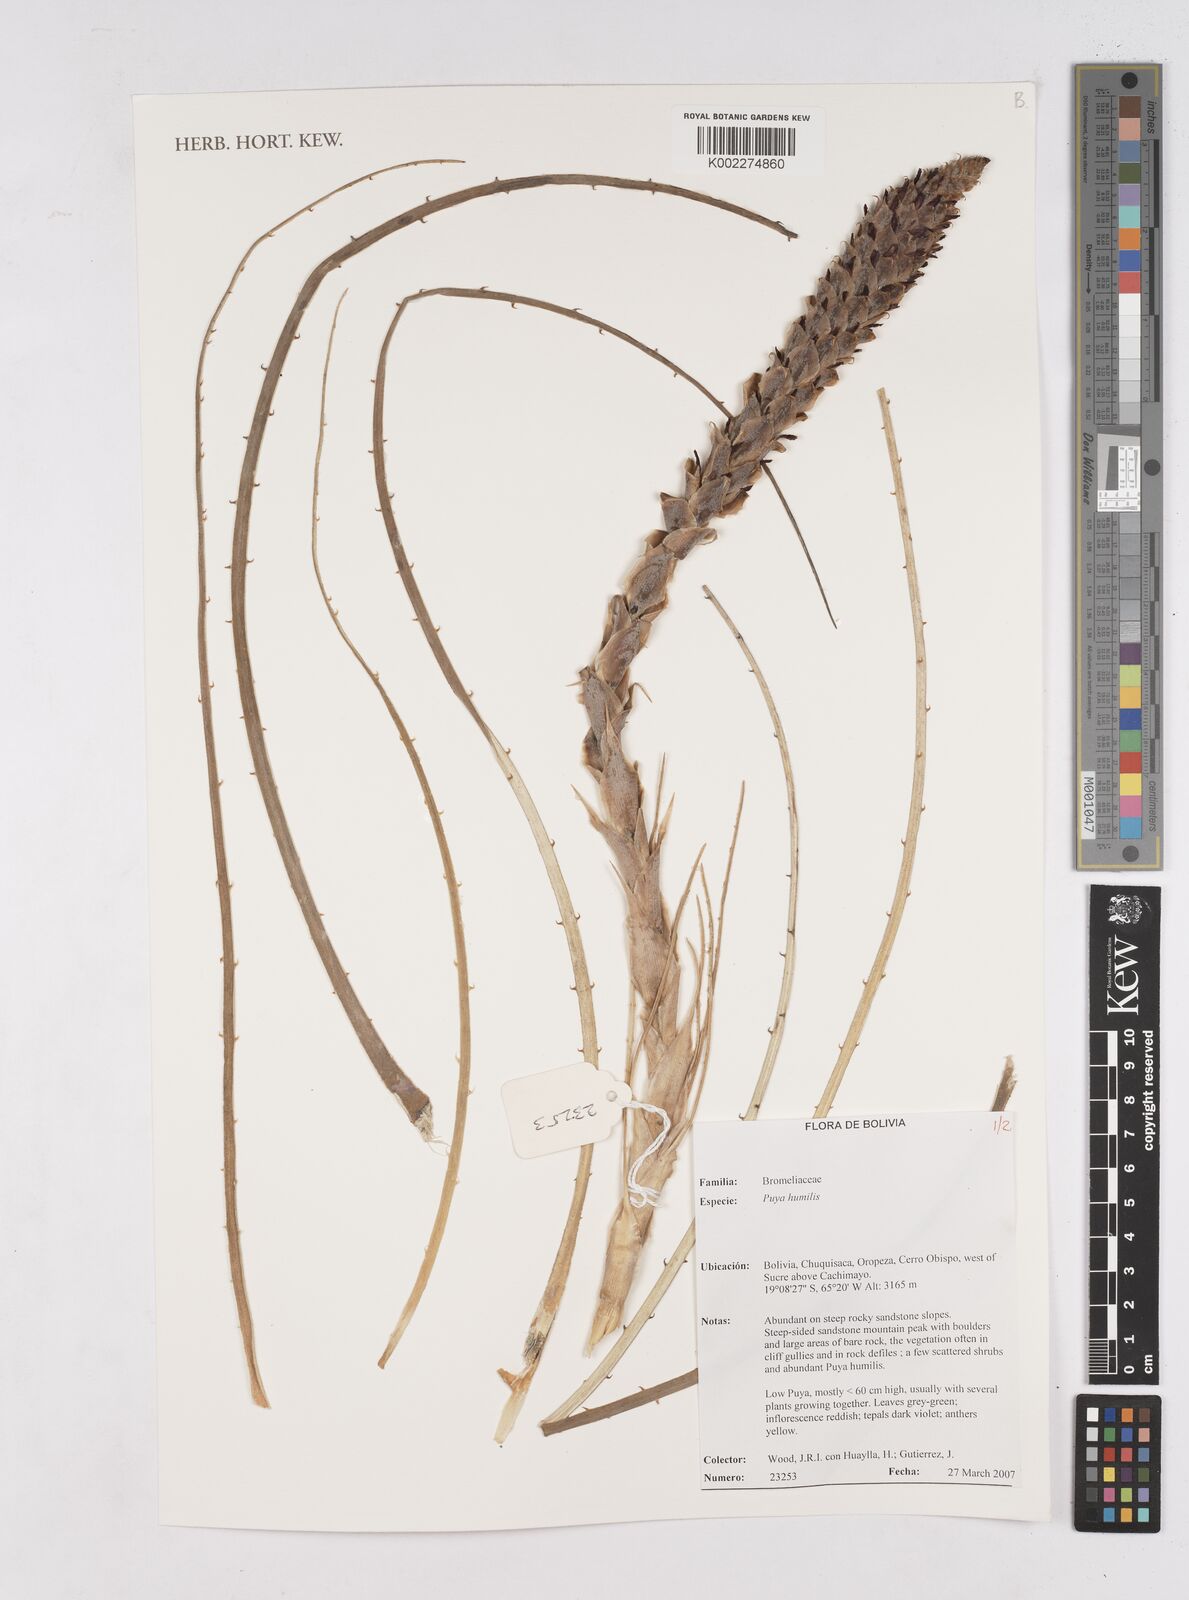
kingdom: Plantae
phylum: Tracheophyta
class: Liliopsida
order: Poales
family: Bromeliaceae
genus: Puya
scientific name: Puya humilis
